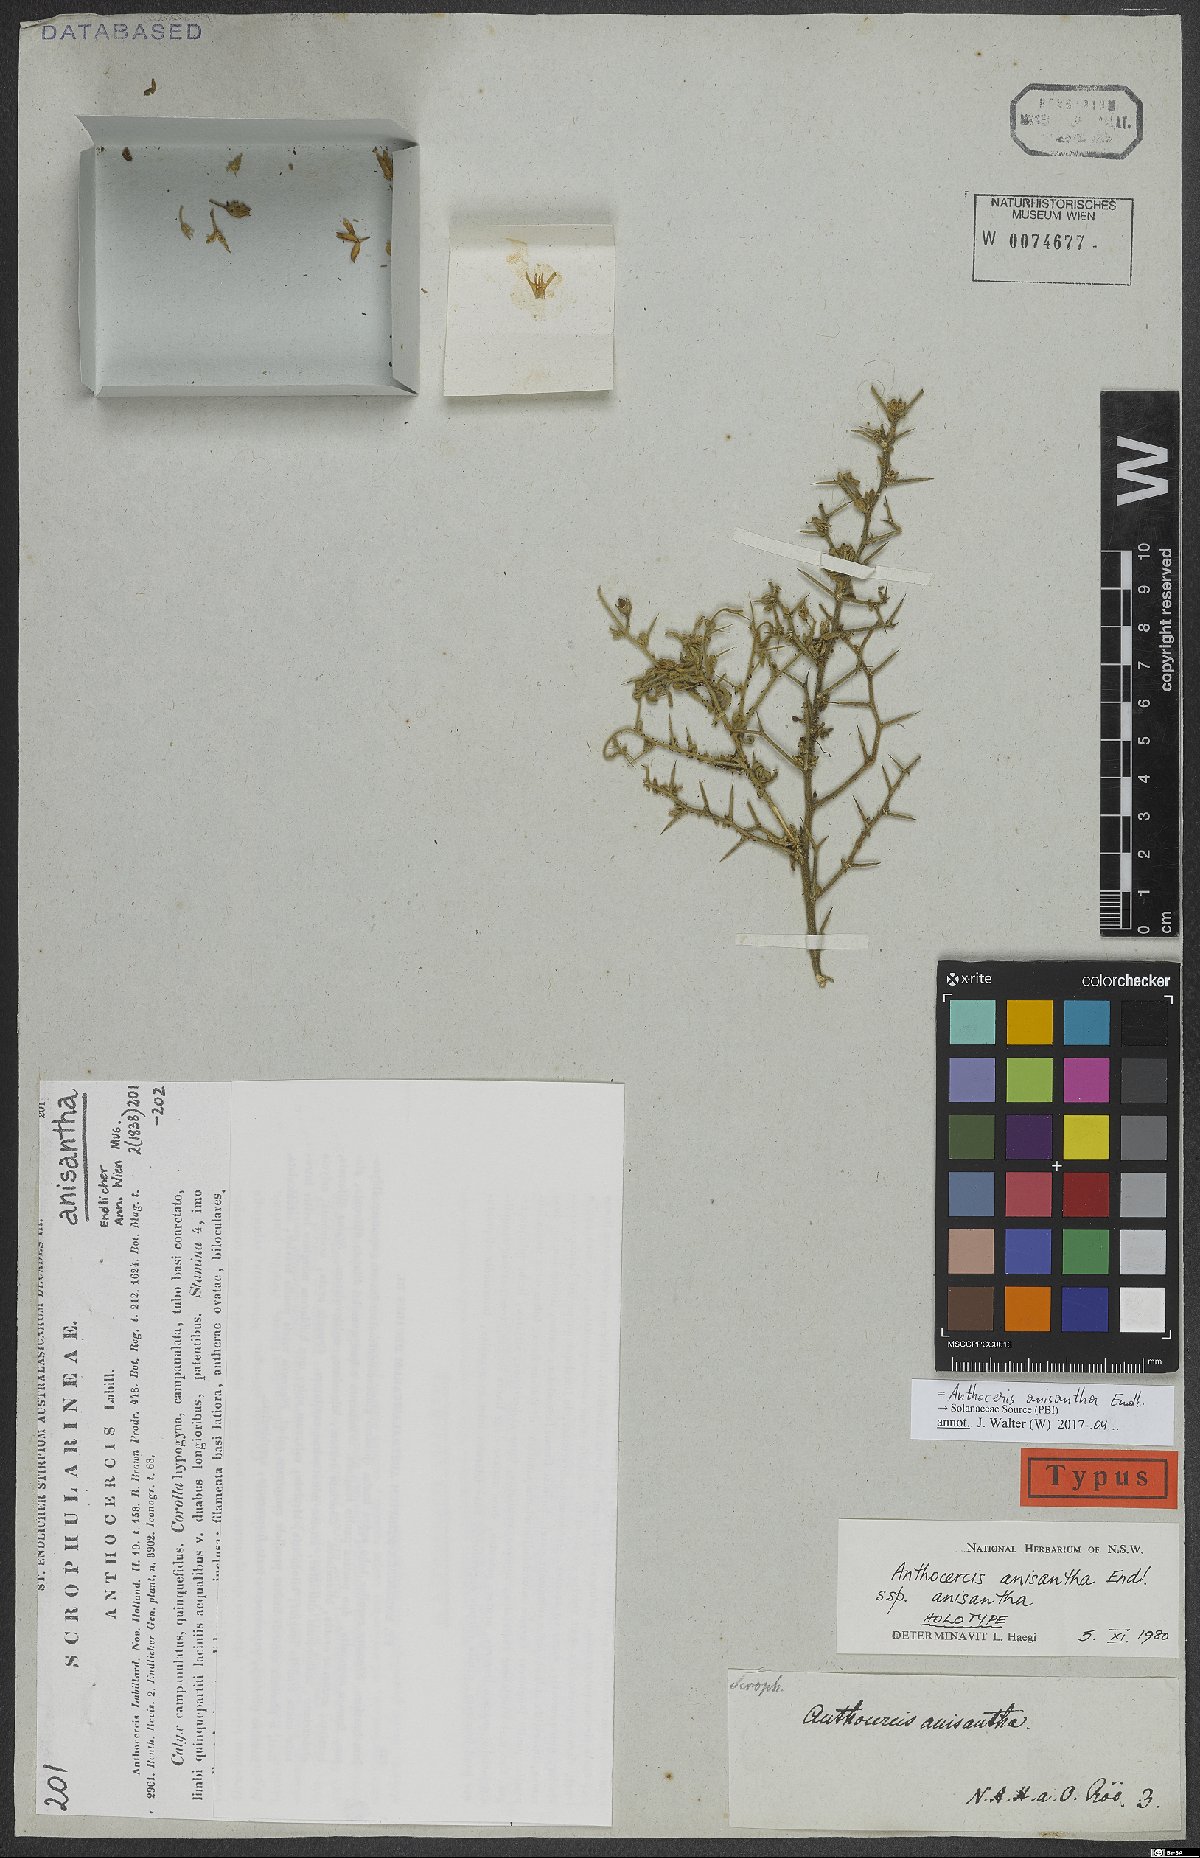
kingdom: Plantae
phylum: Tracheophyta
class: Magnoliopsida
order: Solanales
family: Solanaceae
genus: Anthocercis
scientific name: Anthocercis anisantha
